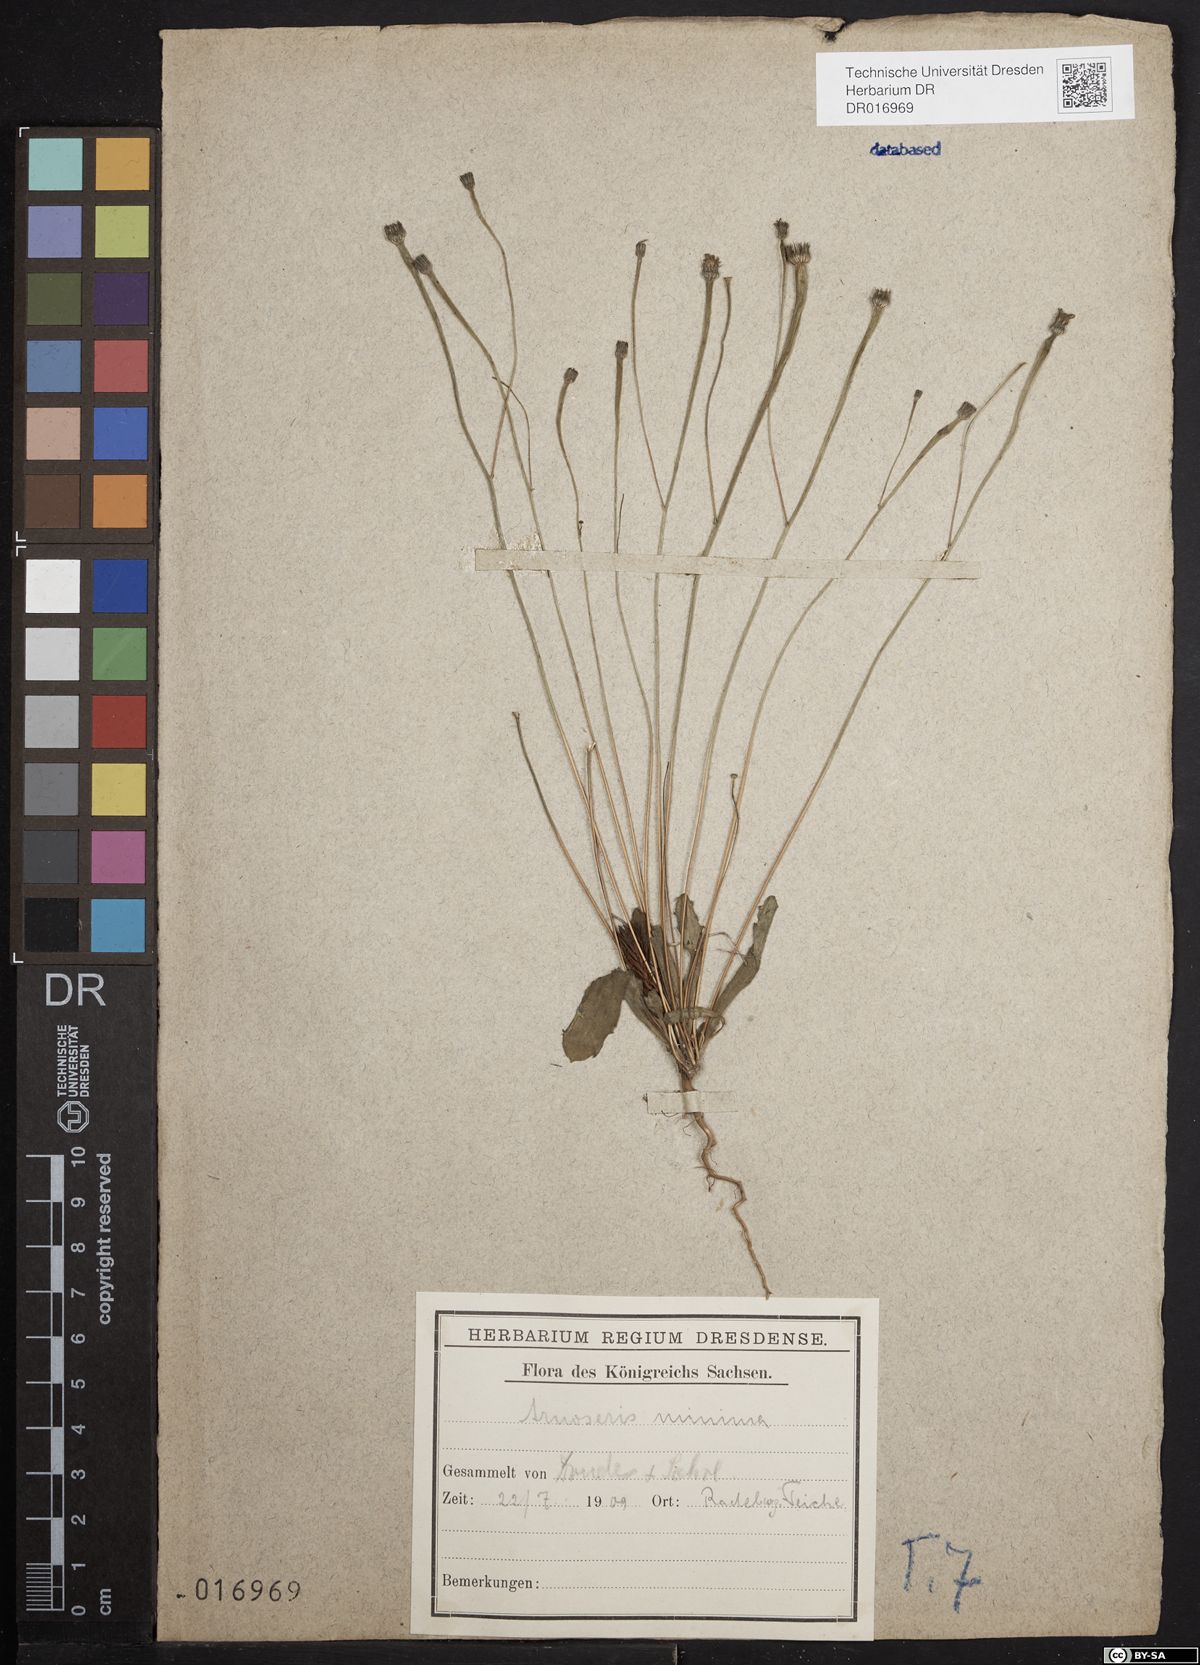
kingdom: Plantae
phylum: Tracheophyta
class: Magnoliopsida
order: Asterales
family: Asteraceae
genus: Arnoseris
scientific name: Arnoseris minima
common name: Lamb's succory
